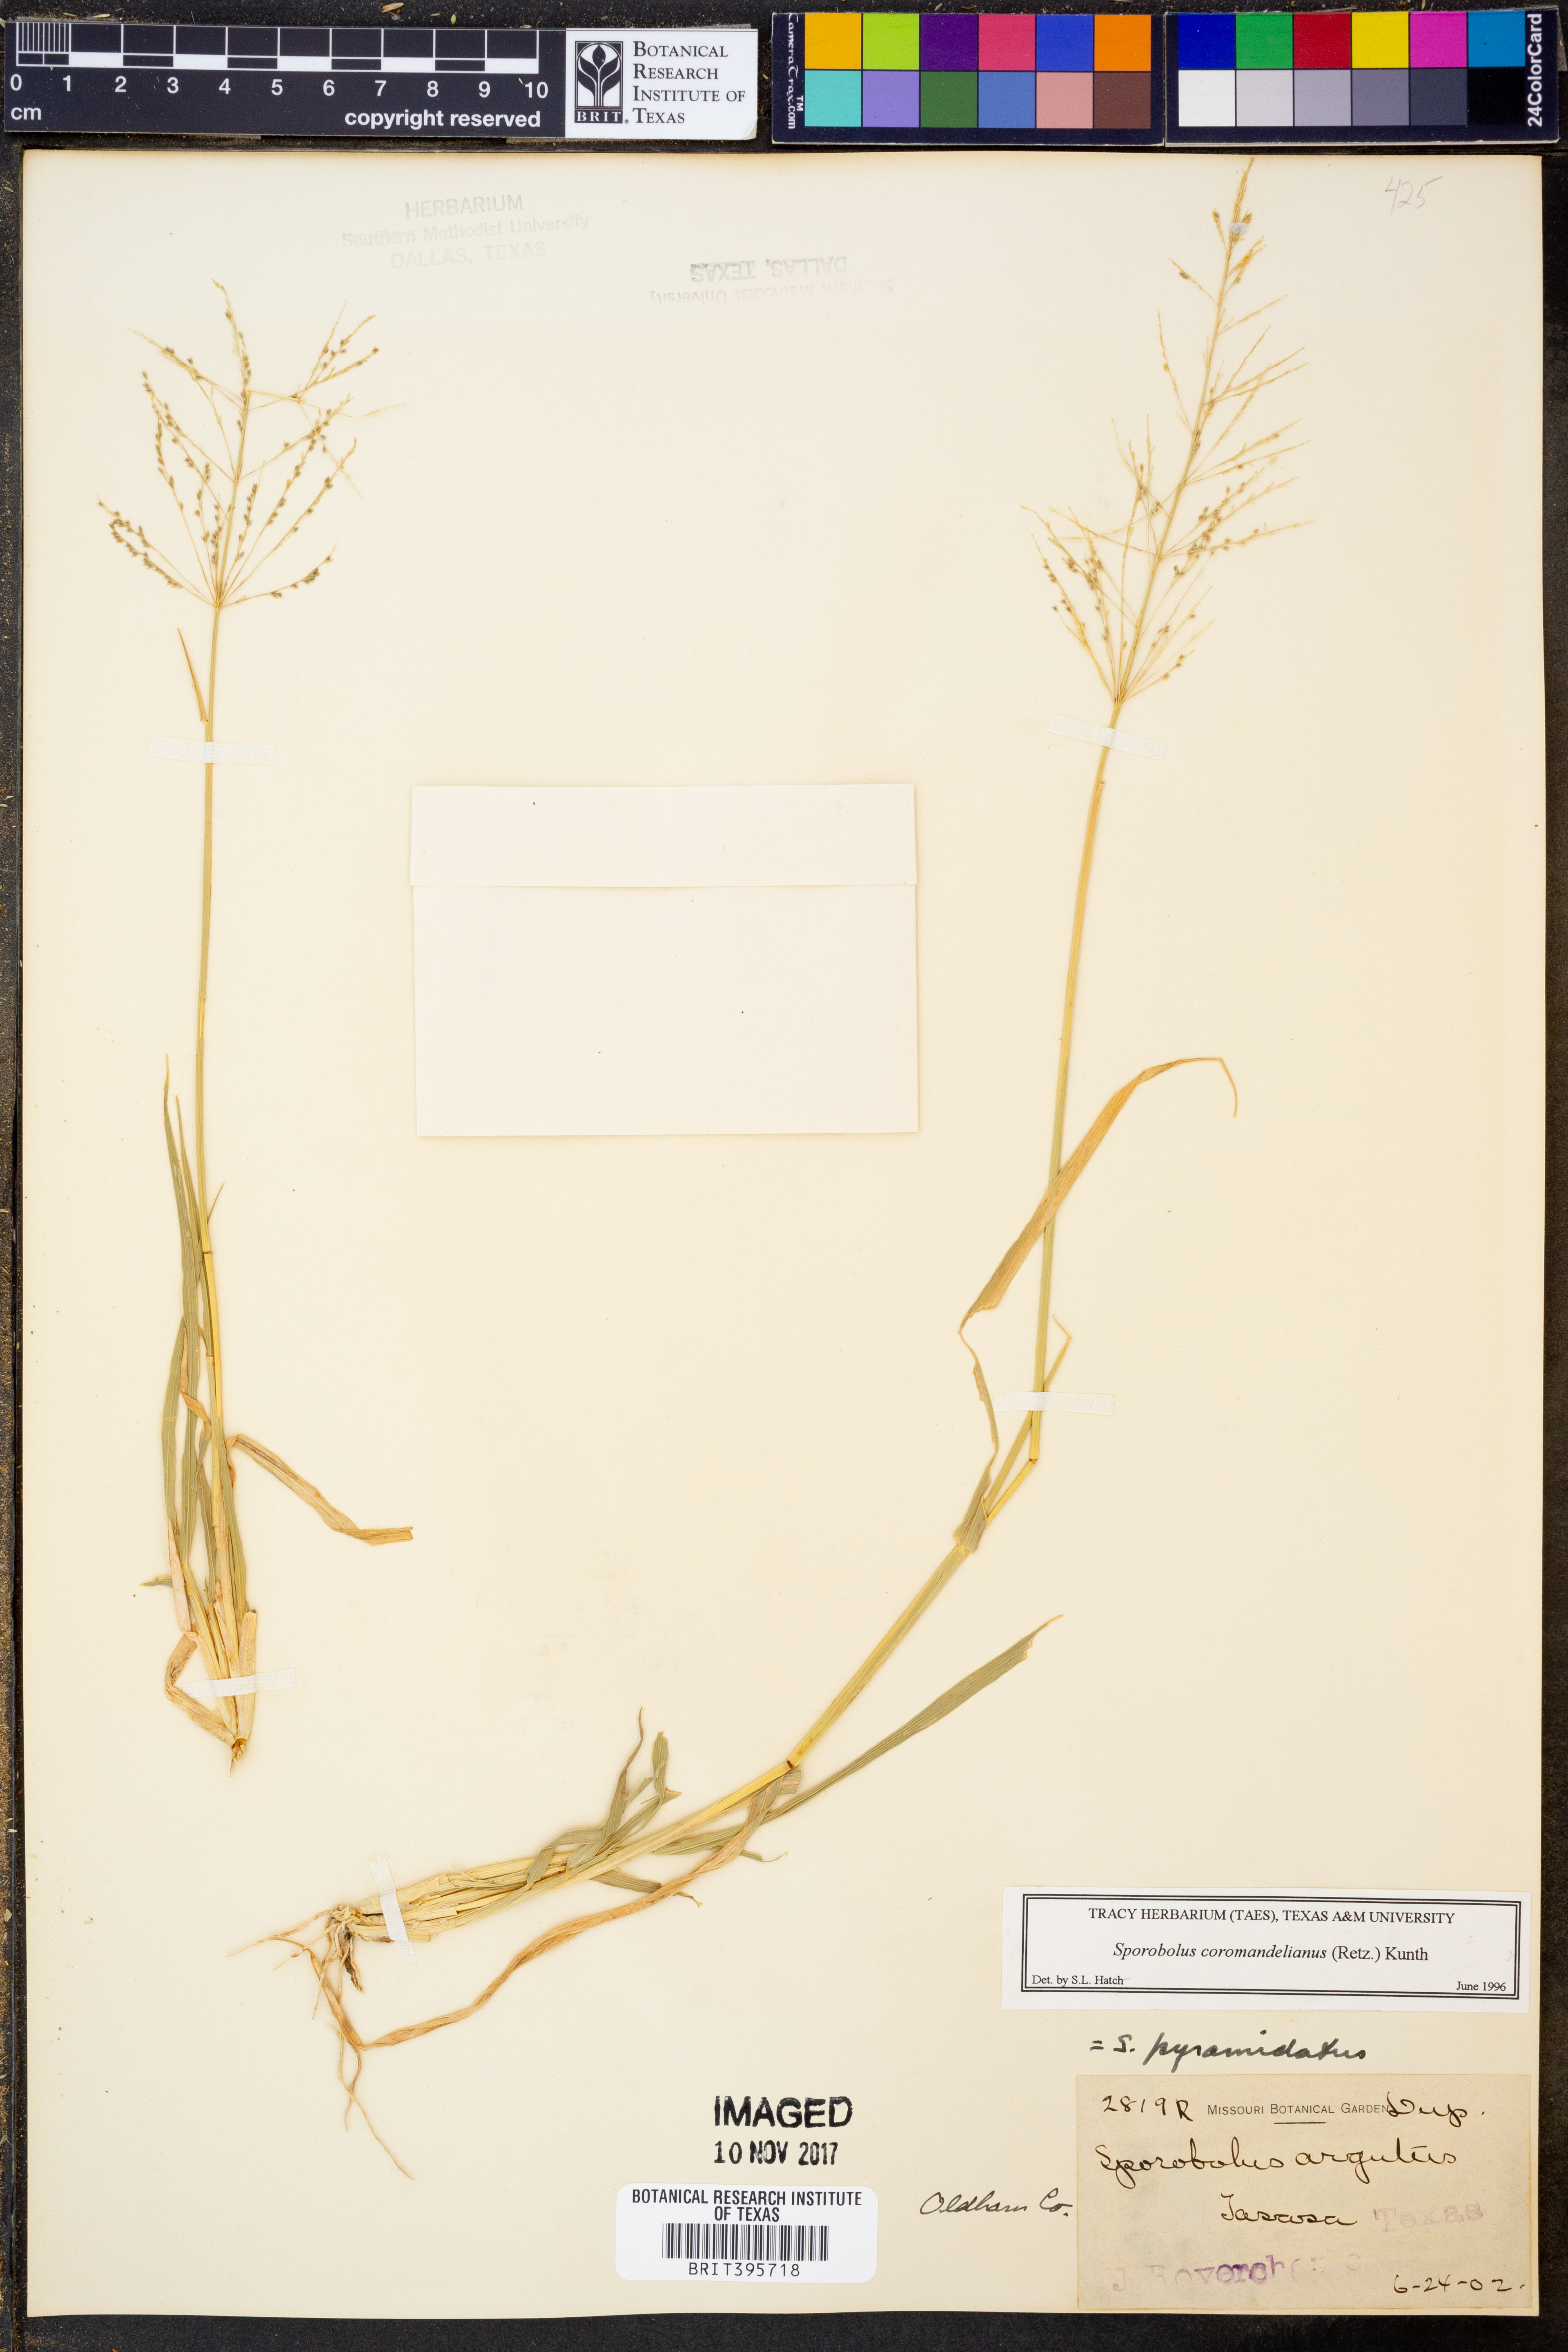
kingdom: Plantae
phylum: Tracheophyta
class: Liliopsida
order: Poales
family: Poaceae
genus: Sporobolus
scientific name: Sporobolus coromandelianus
